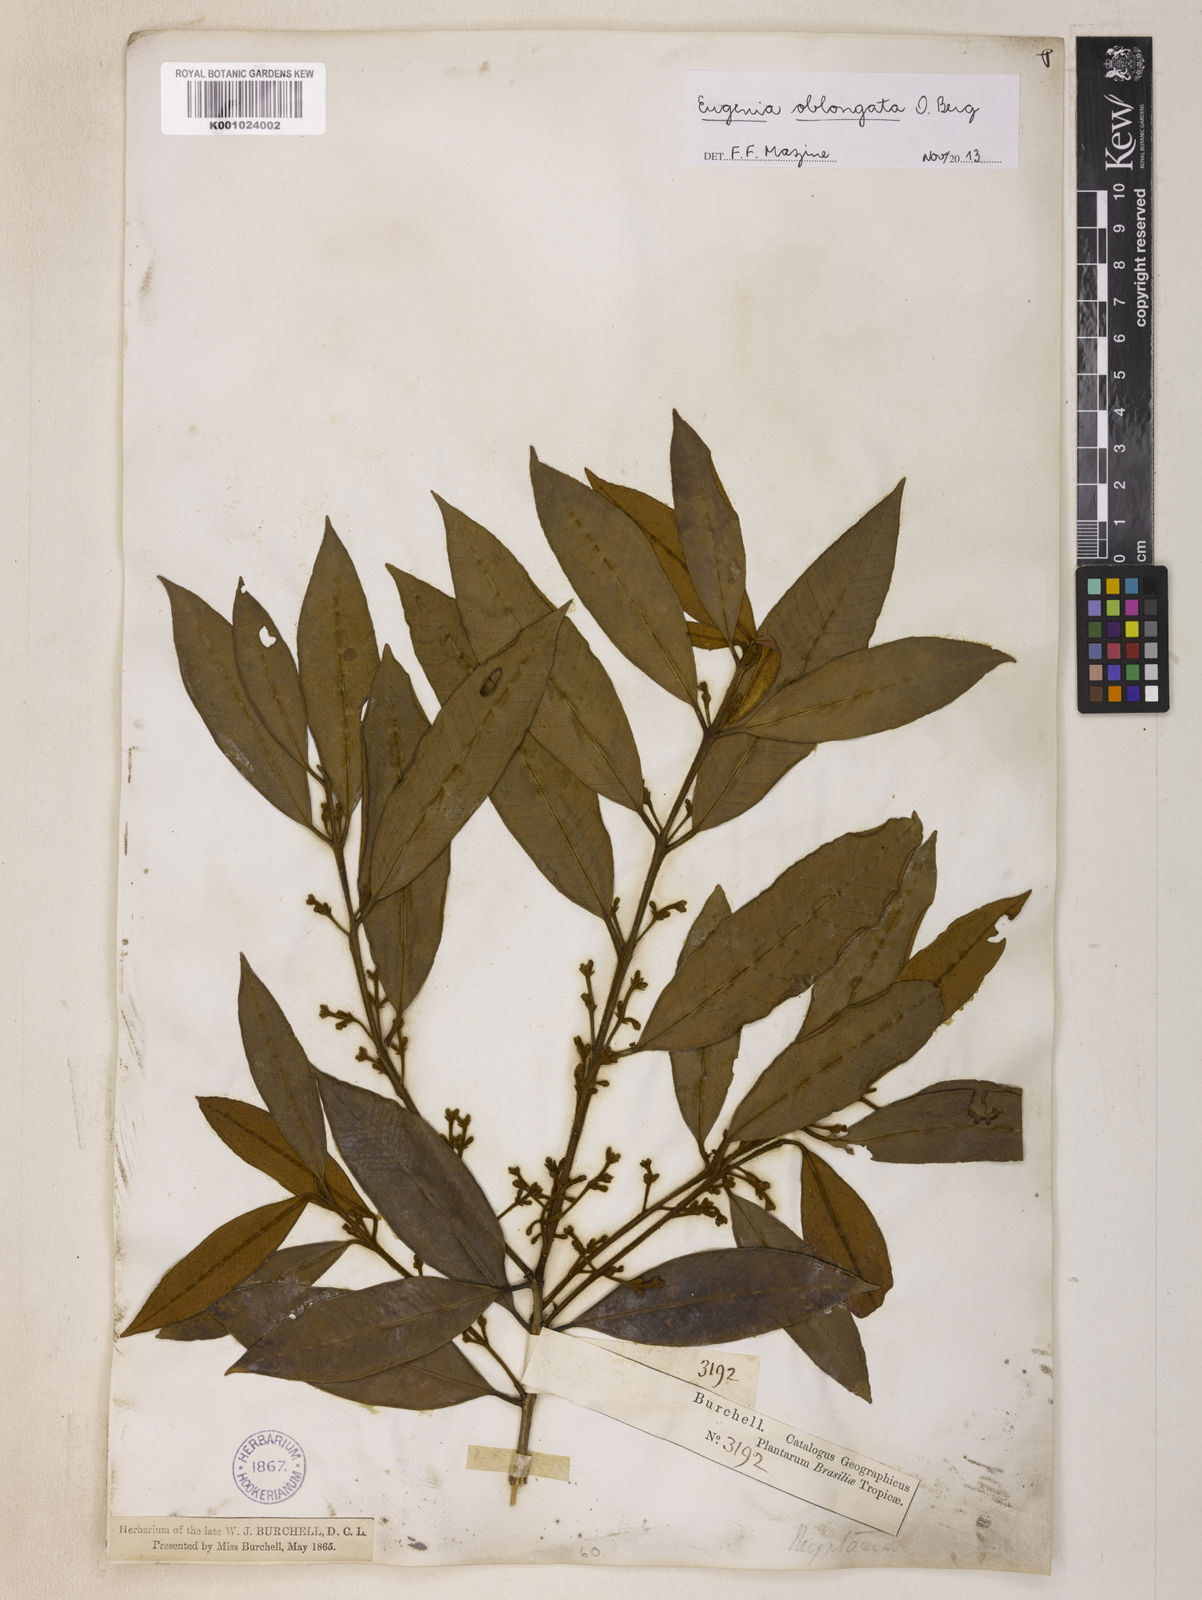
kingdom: Plantae
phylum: Tracheophyta
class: Magnoliopsida
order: Myrtales
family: Myrtaceae
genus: Eugenia
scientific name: Eugenia oblongata
